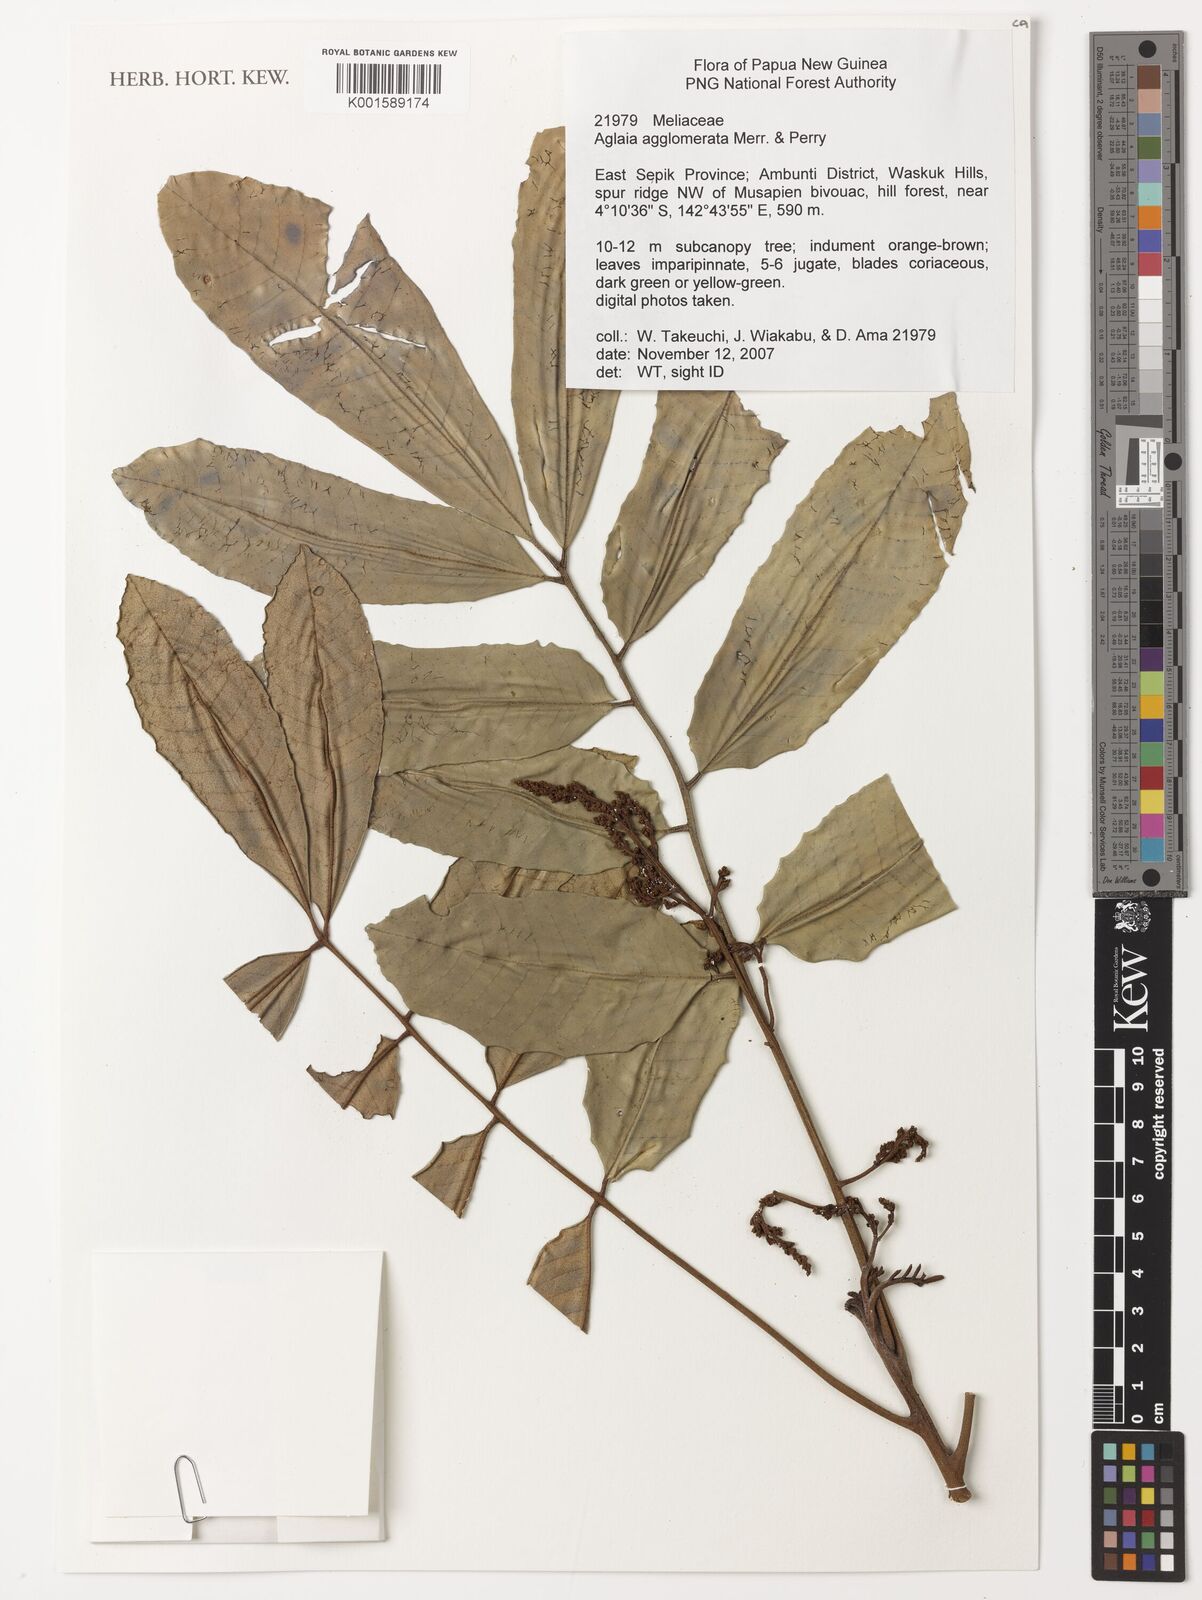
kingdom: Plantae
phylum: Tracheophyta
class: Magnoliopsida
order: Sapindales
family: Meliaceae
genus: Aglaia
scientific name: Aglaia agglomerata
